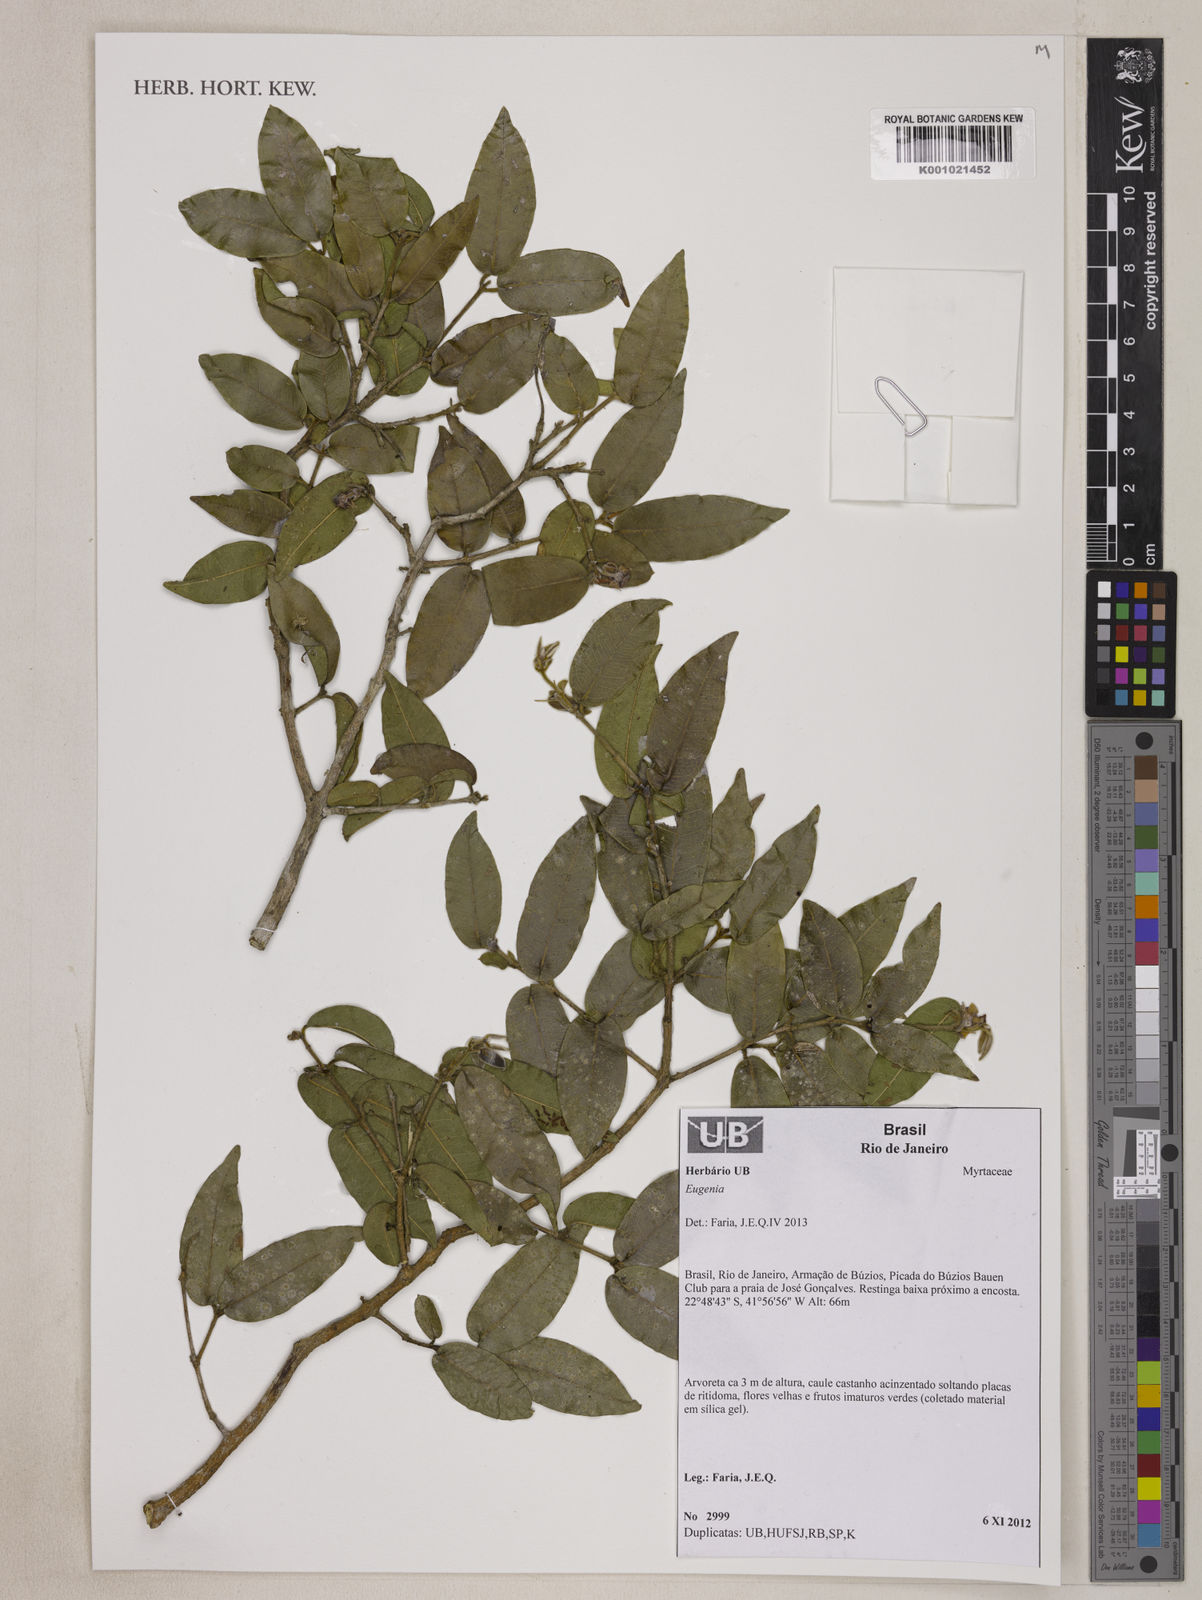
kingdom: Plantae
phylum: Tracheophyta
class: Magnoliopsida
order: Myrtales
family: Myrtaceae
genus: Eugenia
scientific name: Eugenia gastropogena
